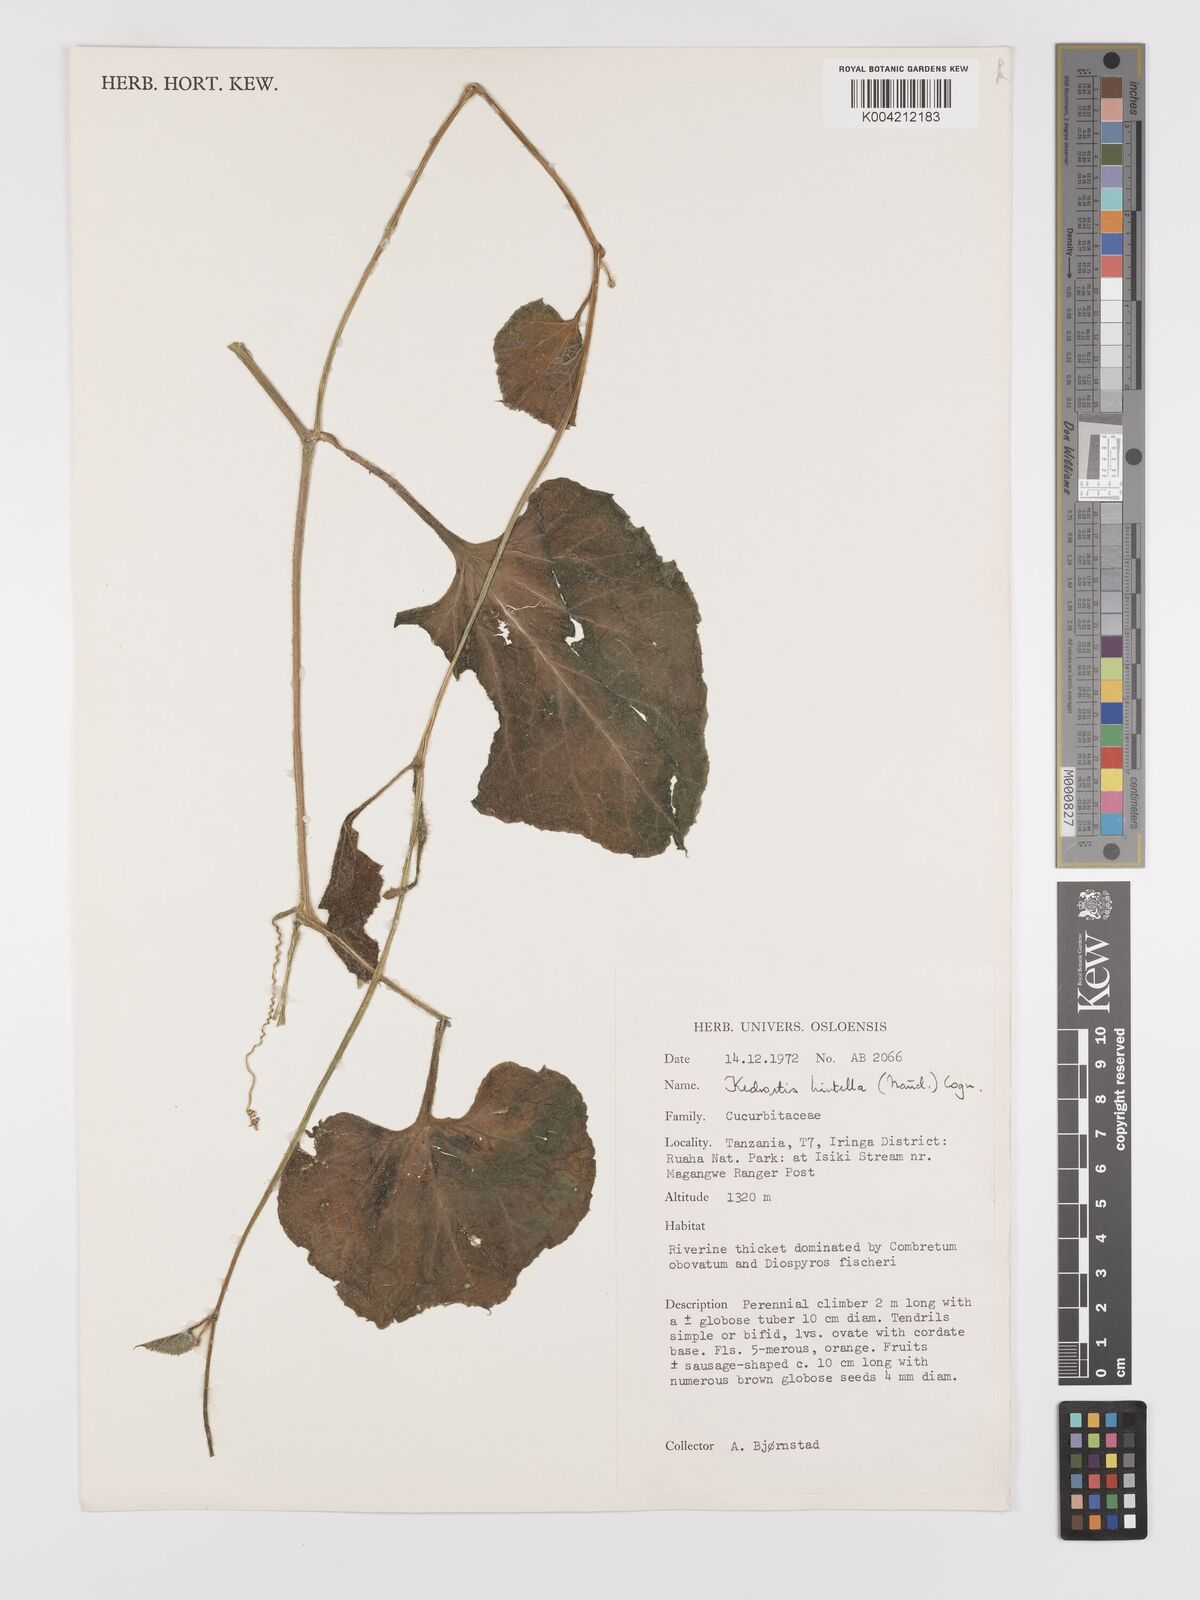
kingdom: Plantae
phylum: Tracheophyta
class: Magnoliopsida
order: Cucurbitales
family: Cucurbitaceae
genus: Kedrostis
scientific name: Kedrostis leloja
